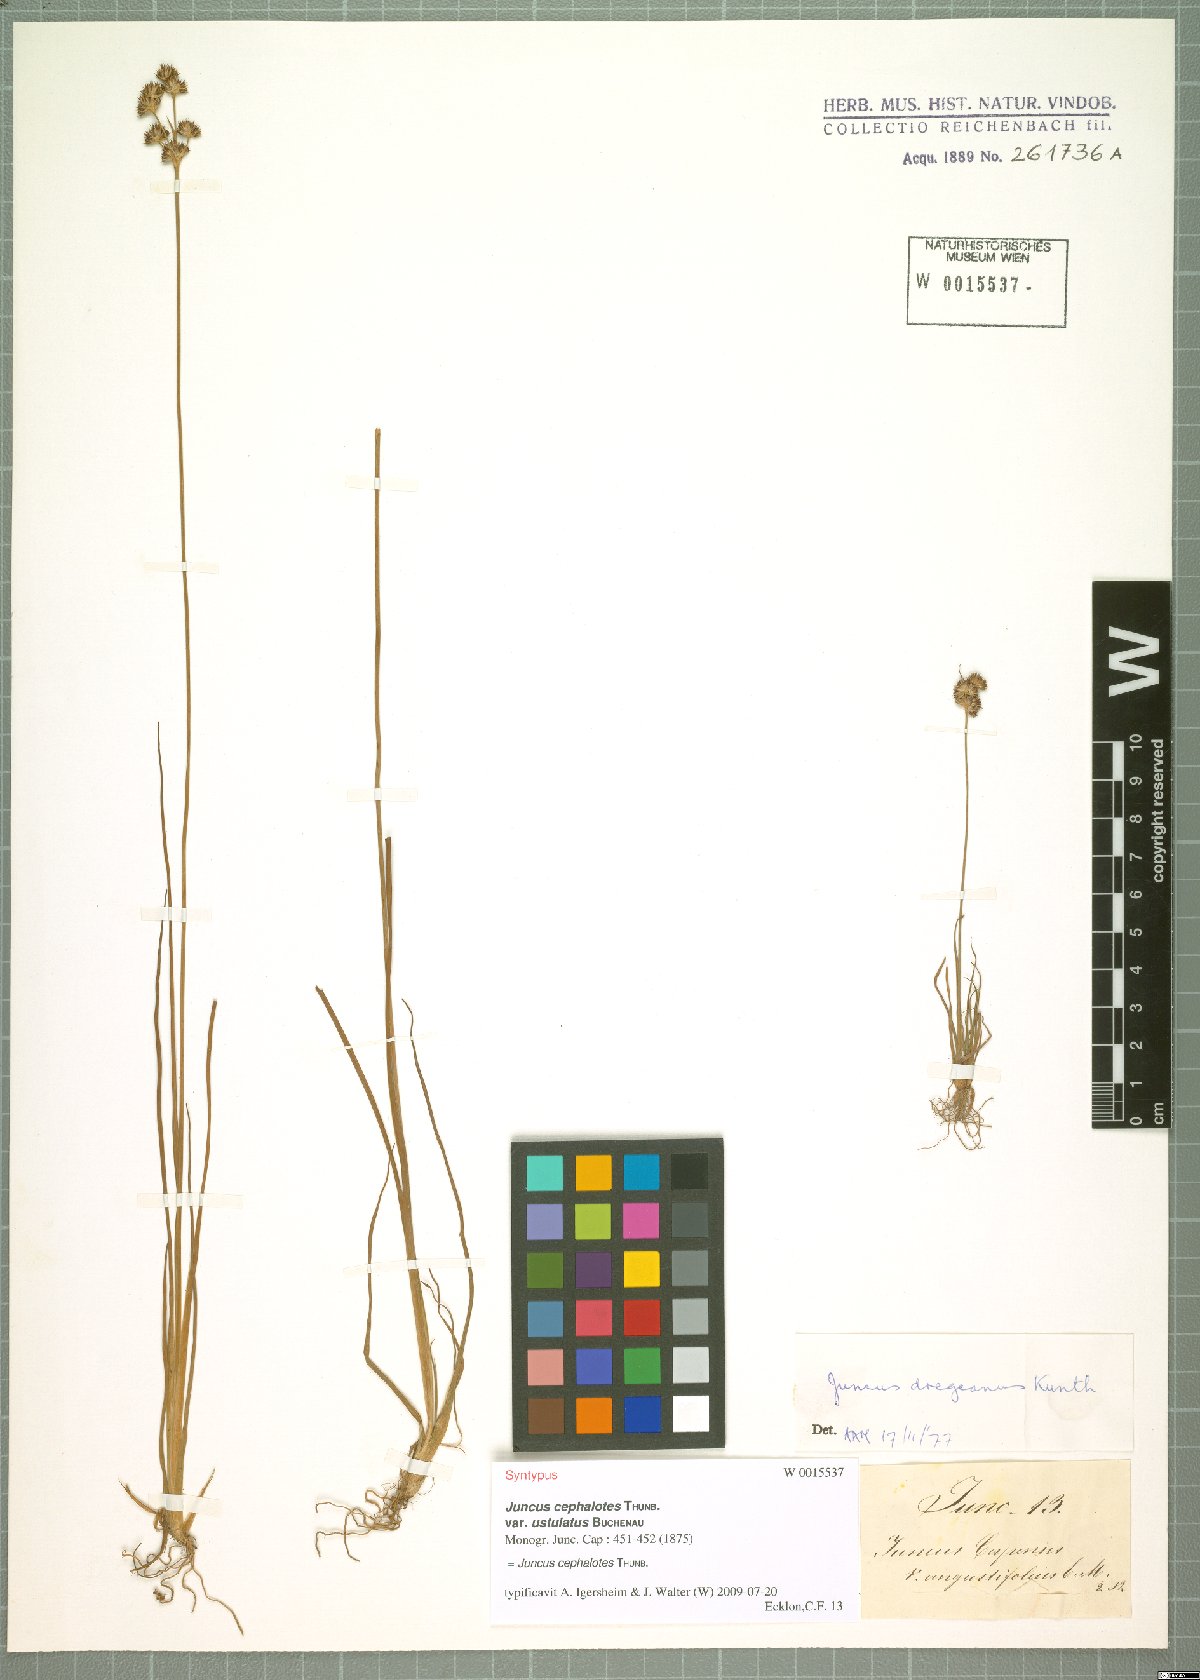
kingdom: Plantae
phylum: Tracheophyta
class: Liliopsida
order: Poales
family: Juncaceae
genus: Juncus
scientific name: Juncus cephalotes
